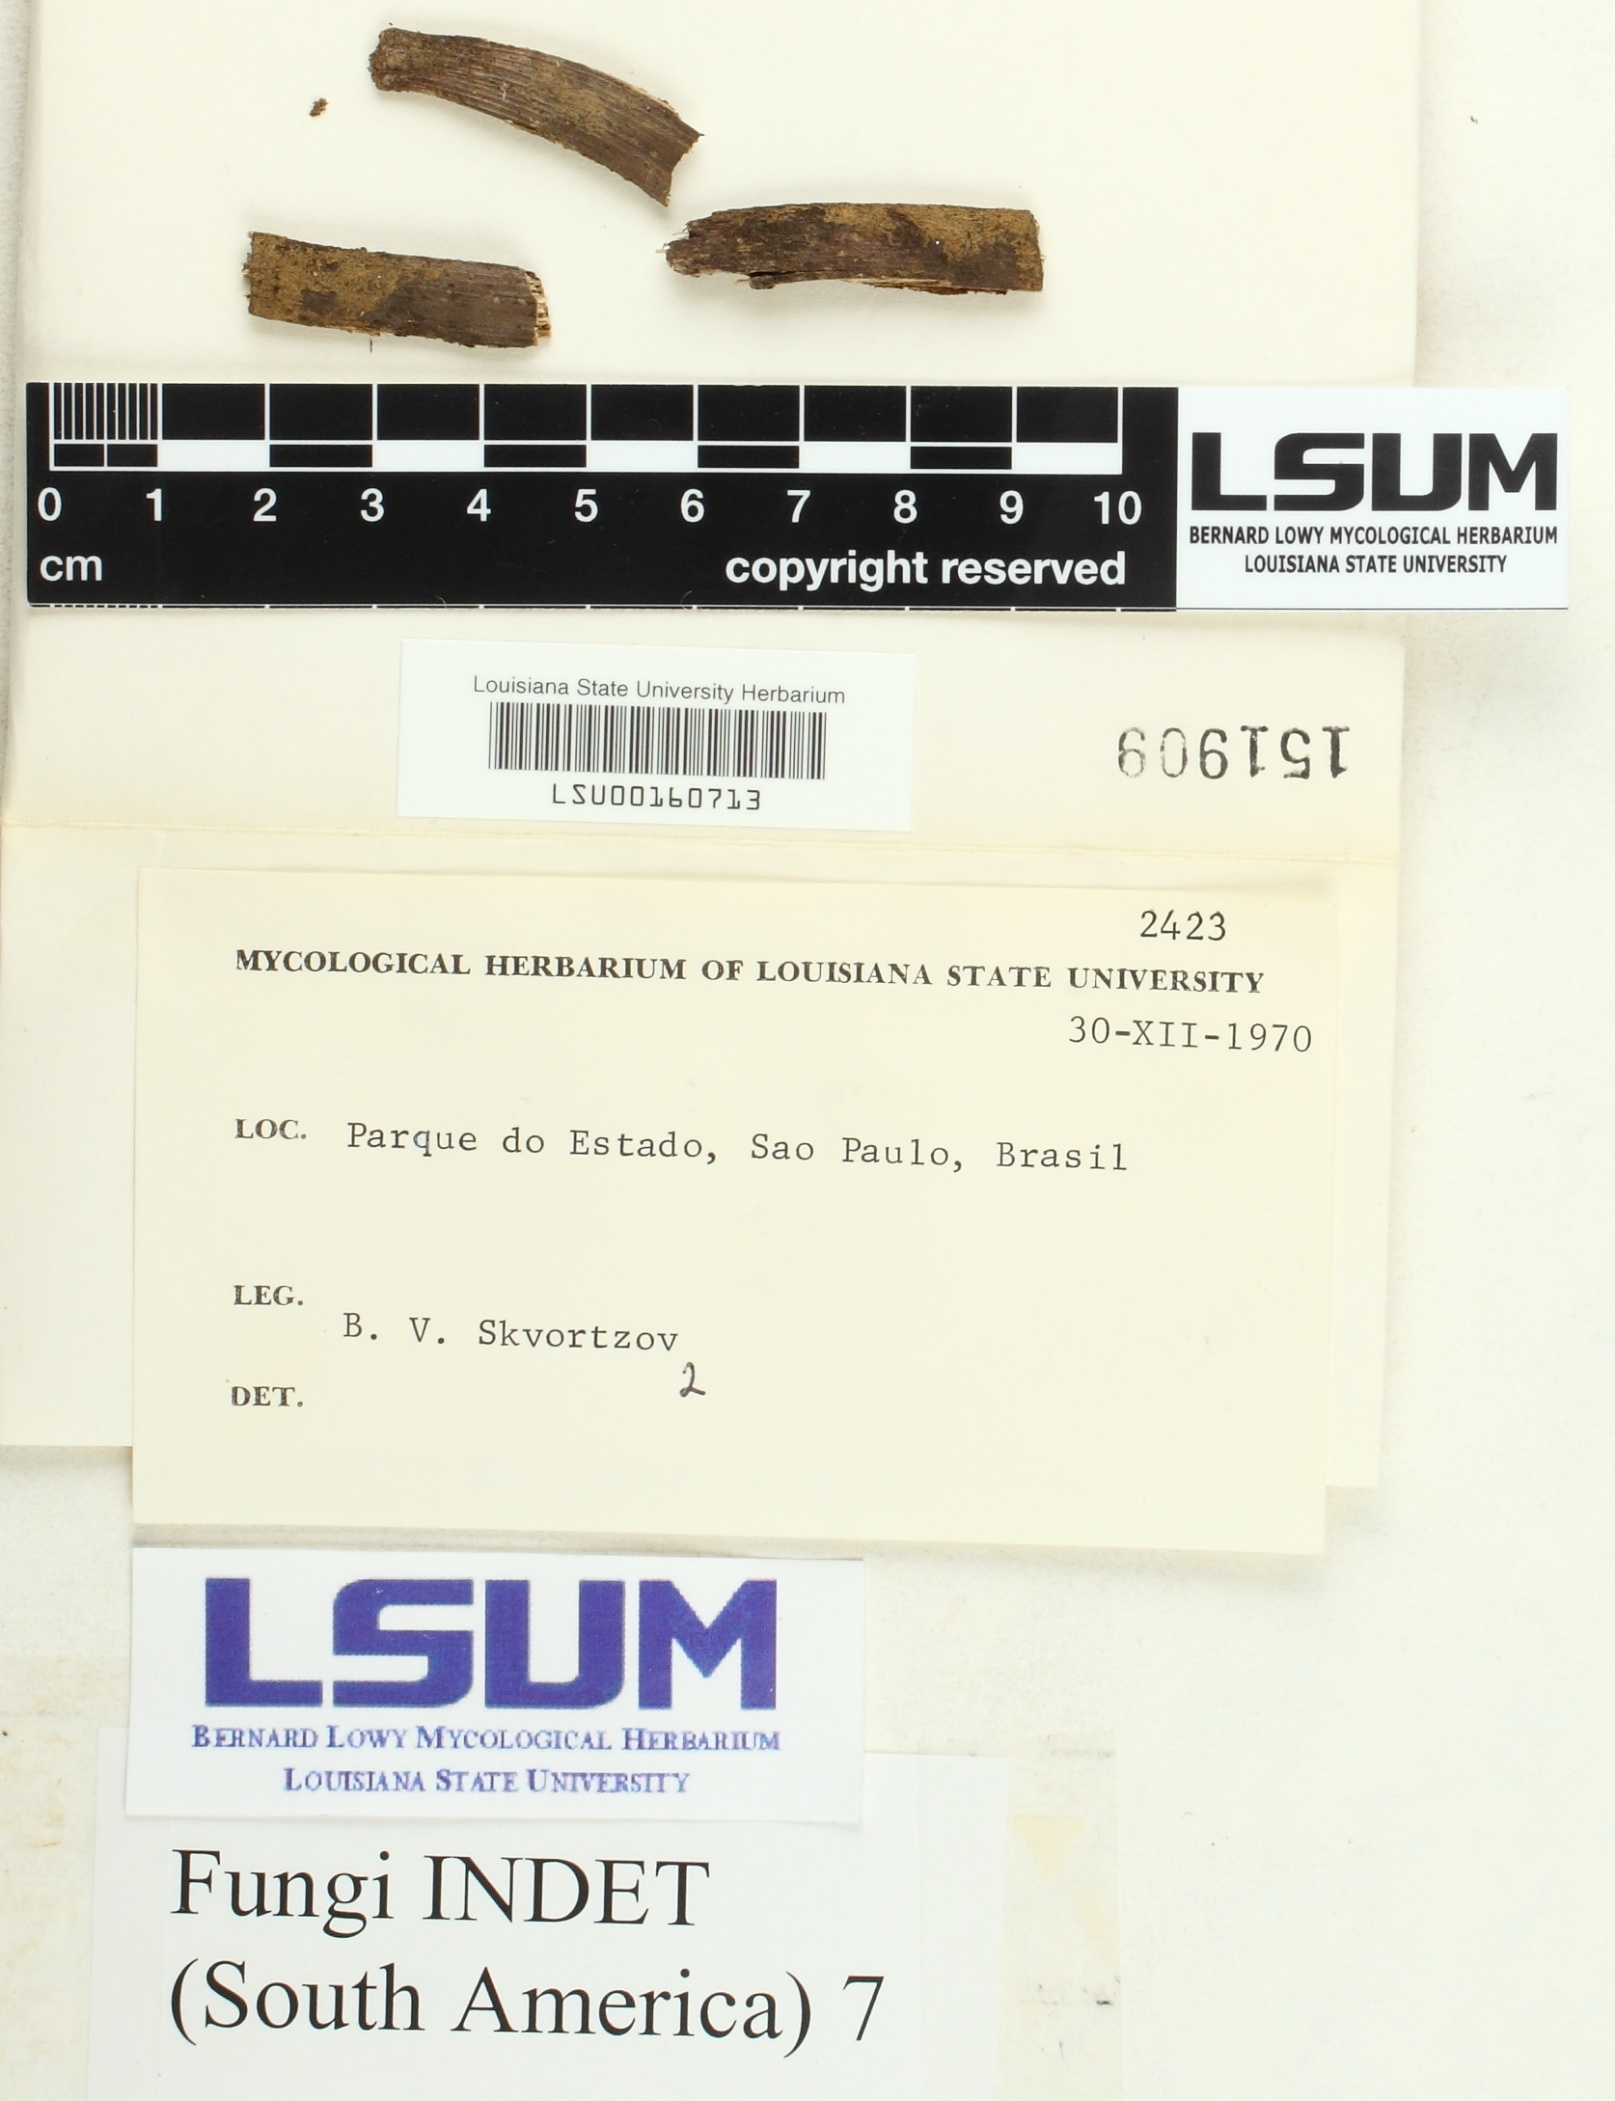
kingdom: Fungi
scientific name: Fungi
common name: Fungi
